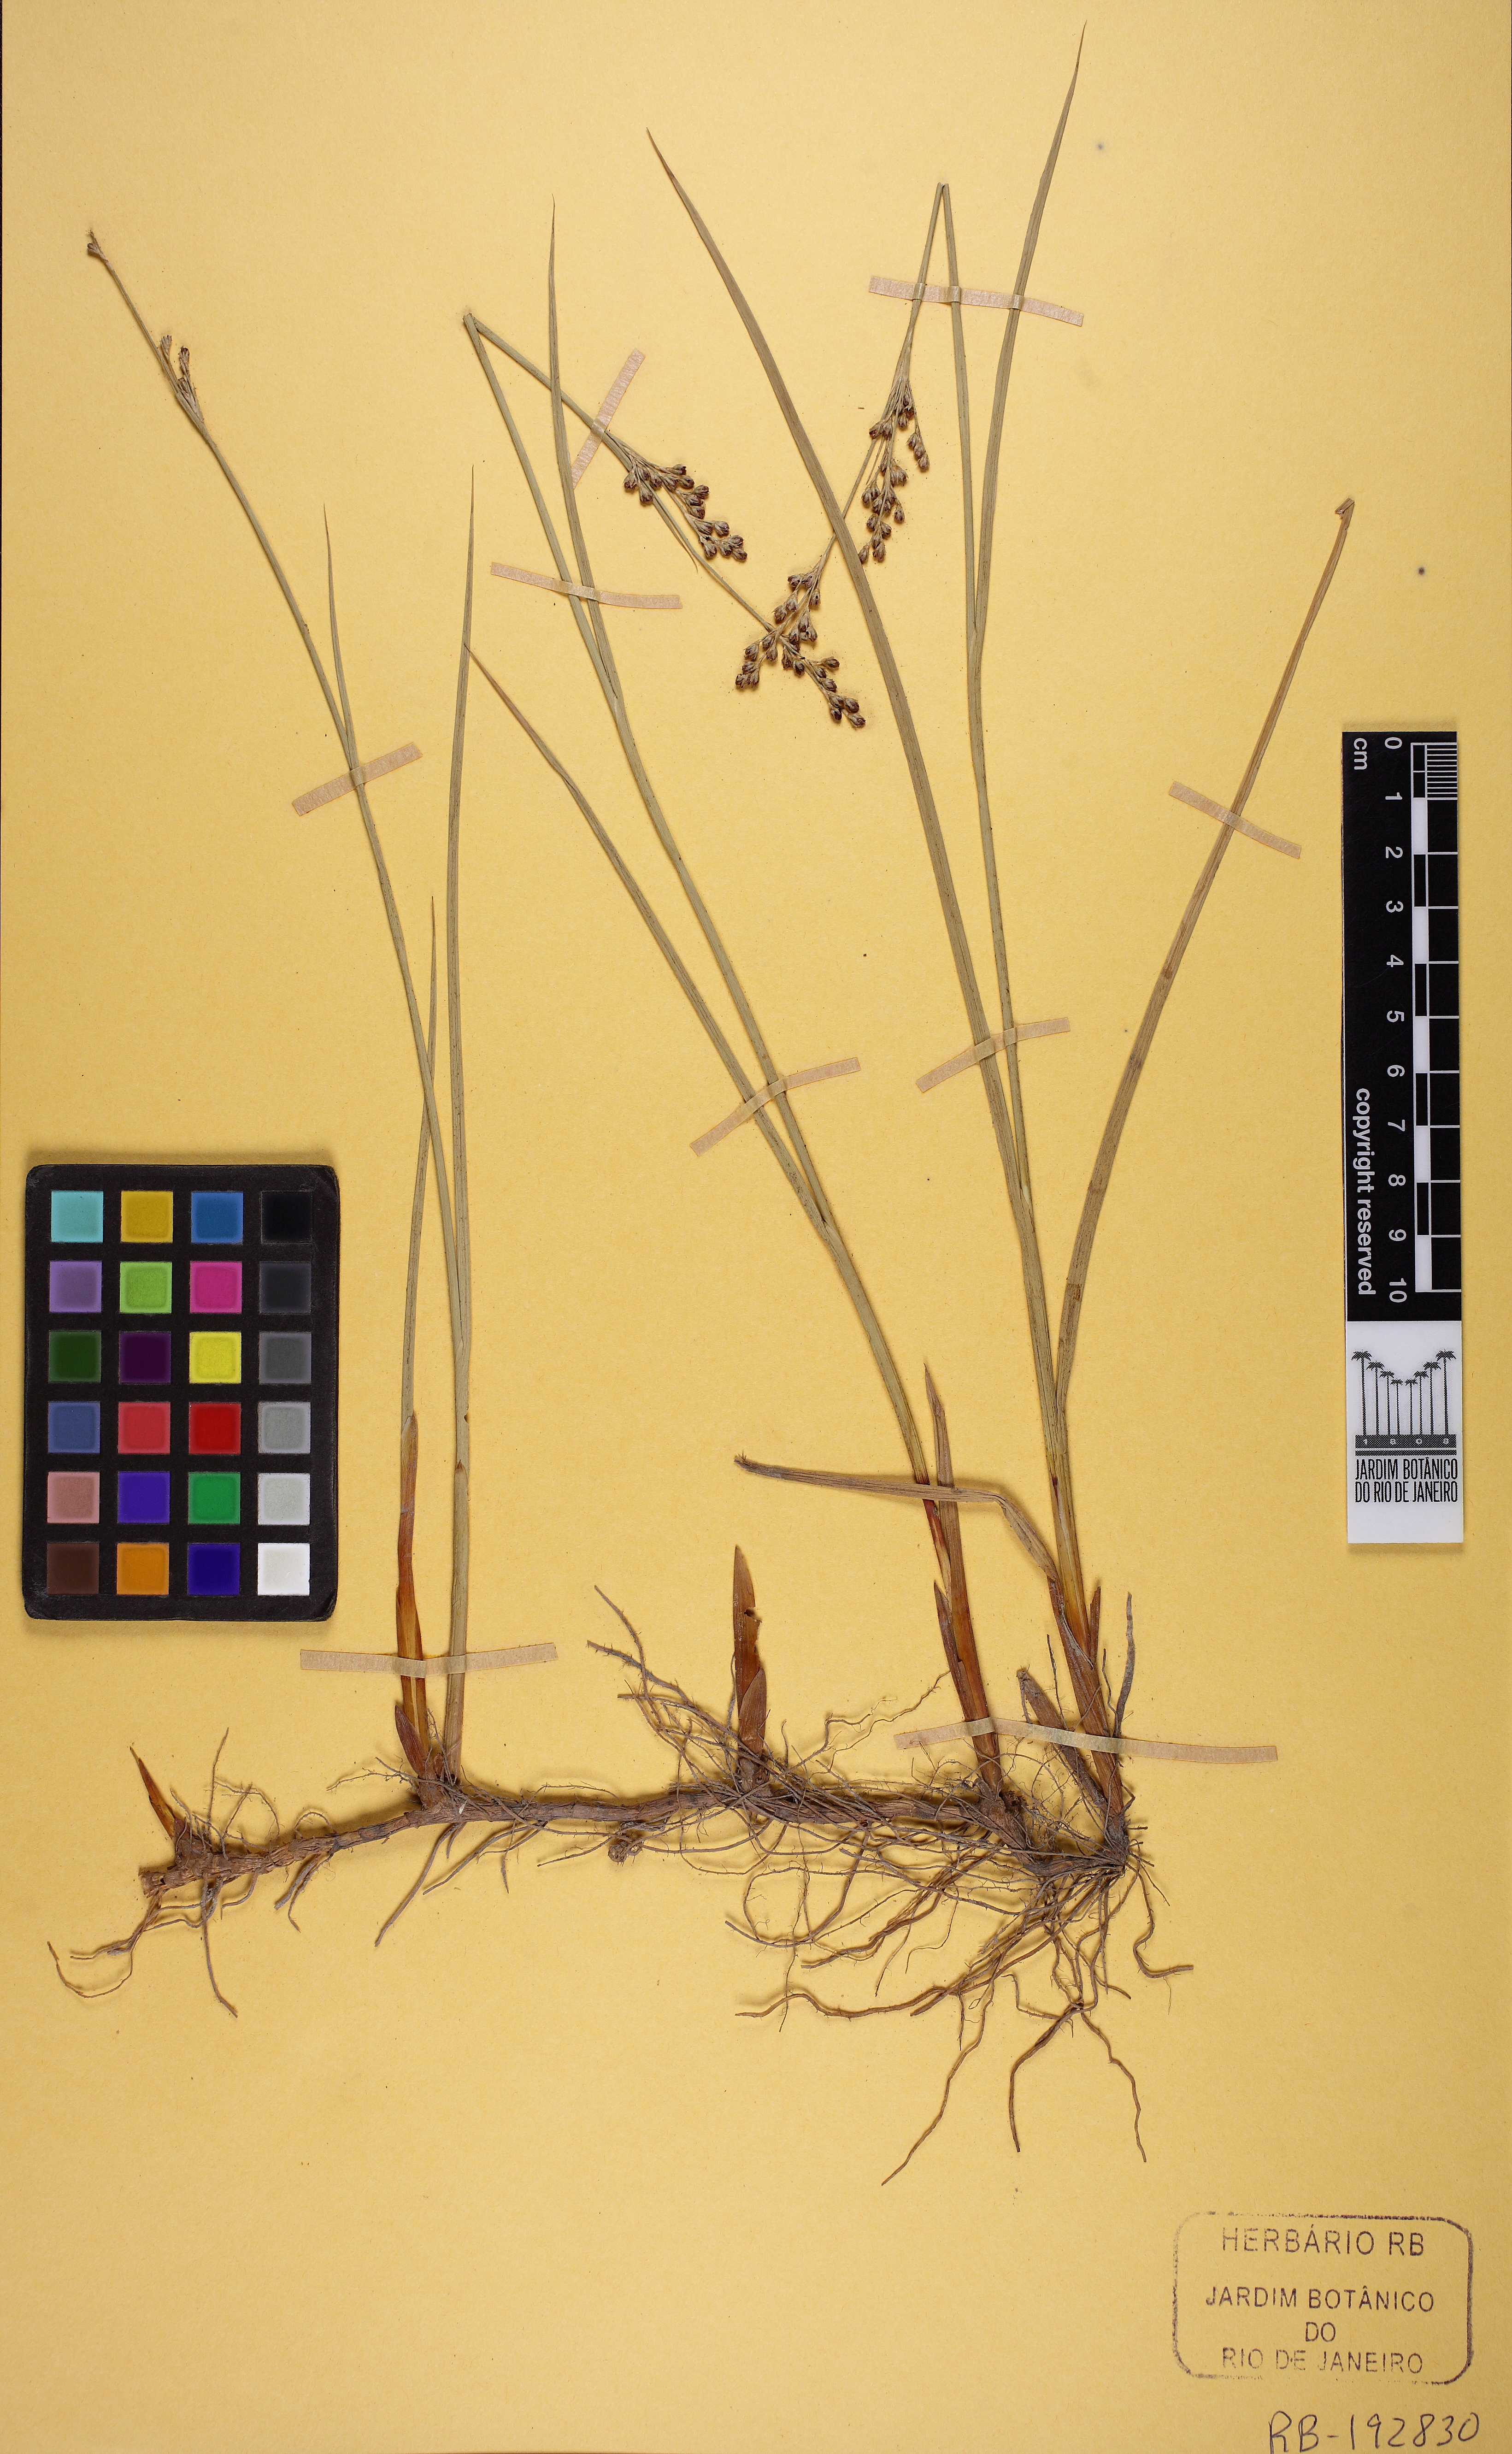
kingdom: Plantae
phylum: Tracheophyta
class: Liliopsida
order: Poales
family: Juncaceae
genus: Juncus
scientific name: Juncus subulatus
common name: Somerset rush
